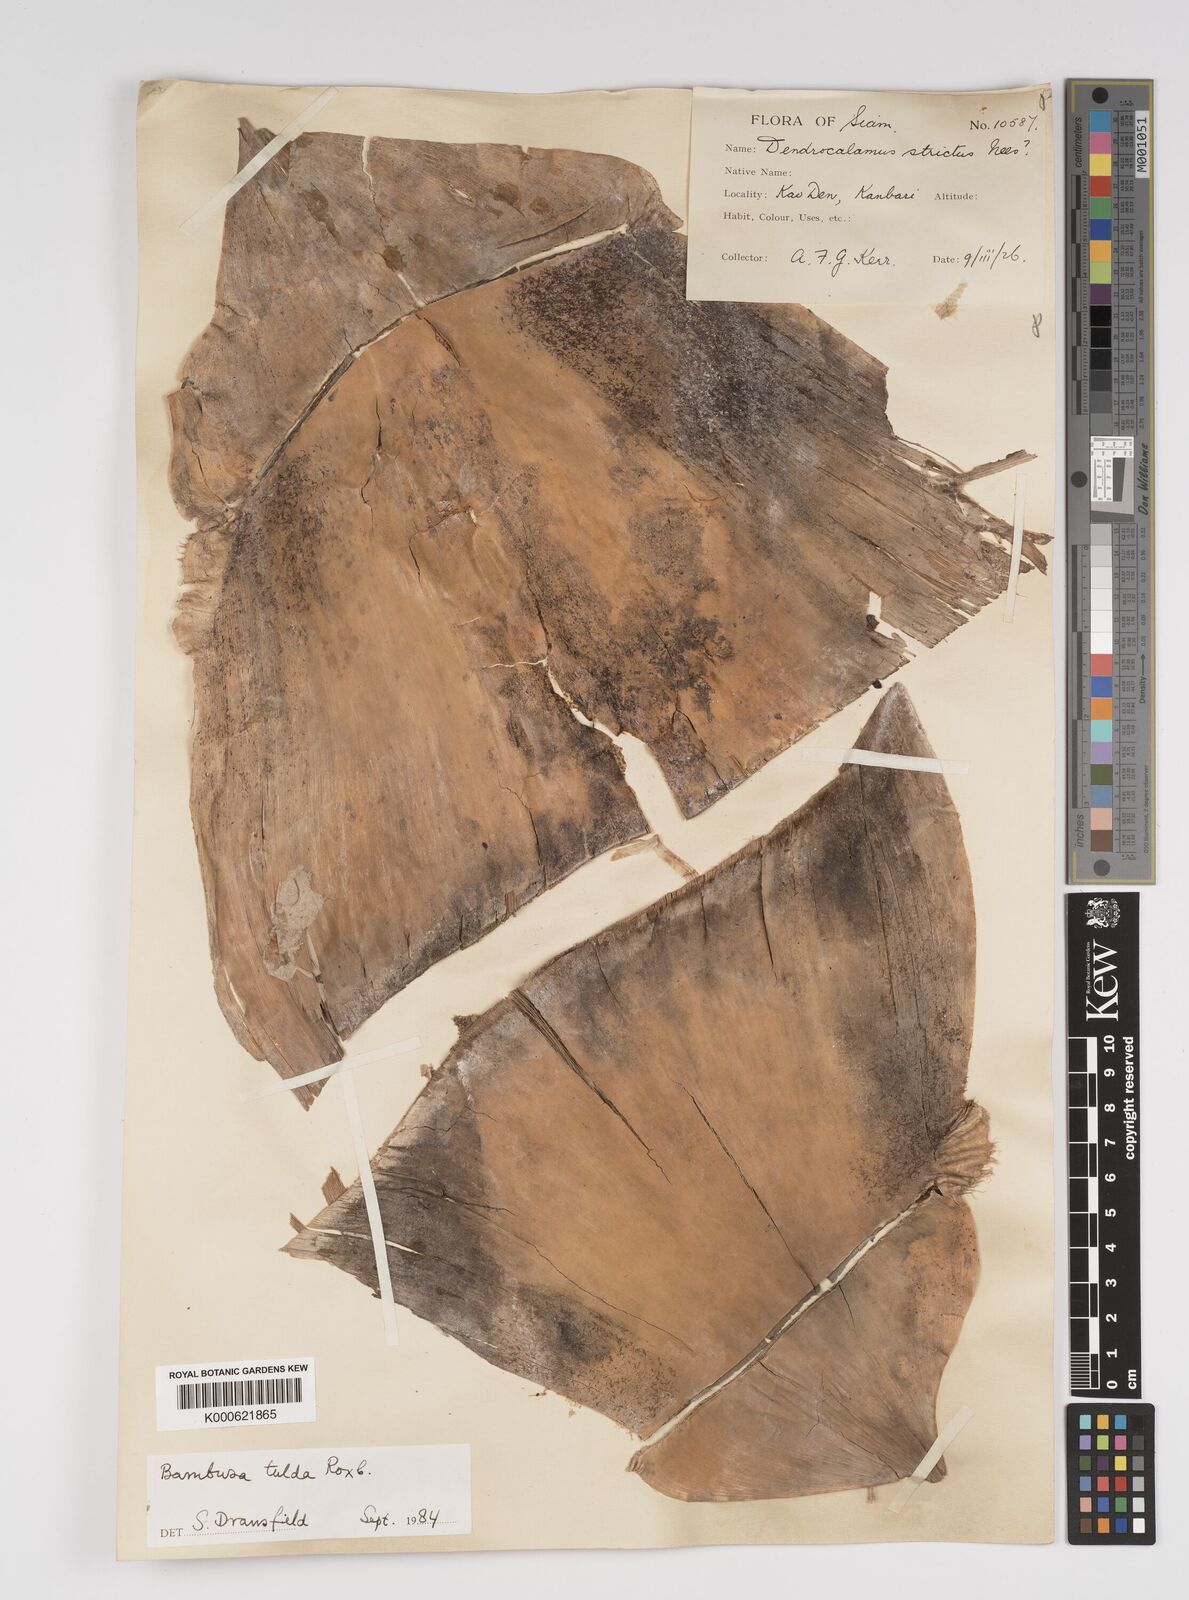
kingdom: Plantae
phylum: Tracheophyta
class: Liliopsida
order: Poales
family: Poaceae
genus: Bambusa
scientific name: Bambusa tulda
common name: Bengal bamboo
